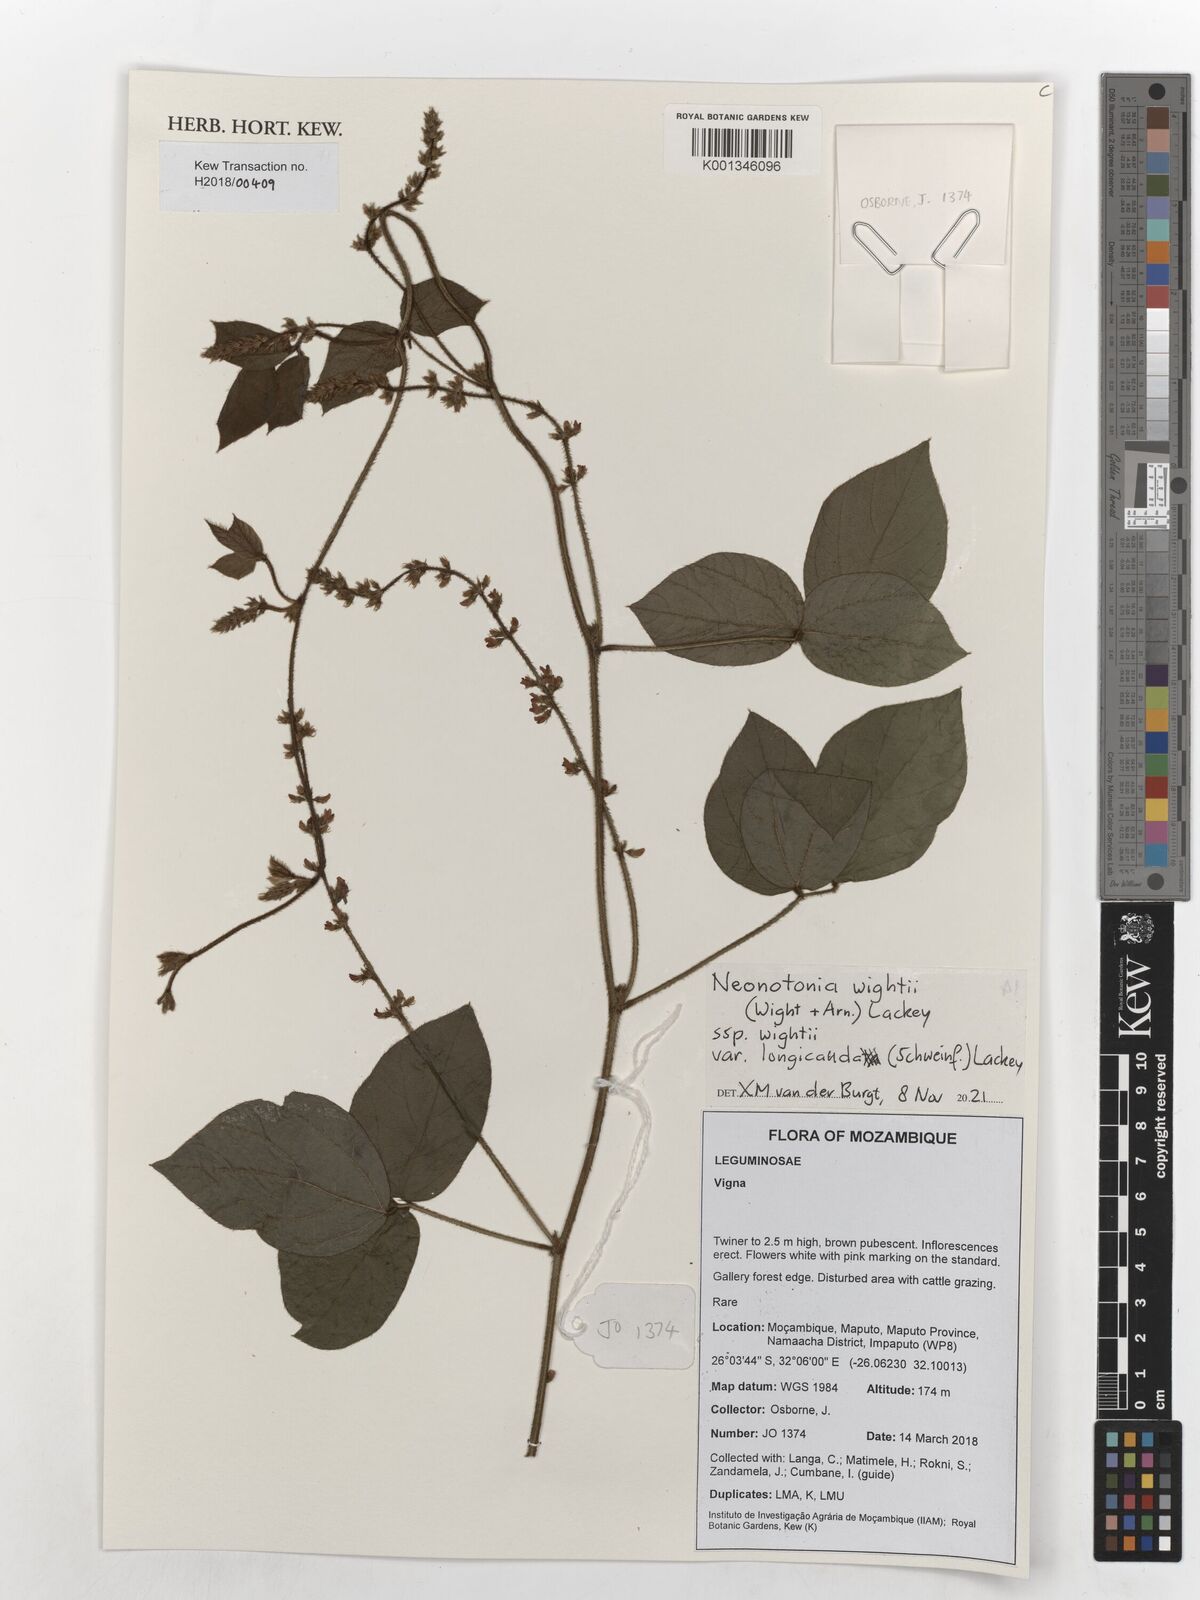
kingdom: Plantae
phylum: Tracheophyta
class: Magnoliopsida
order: Fabales
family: Fabaceae
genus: Neonotonia
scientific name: Neonotonia wightii
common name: Perennial soybean
